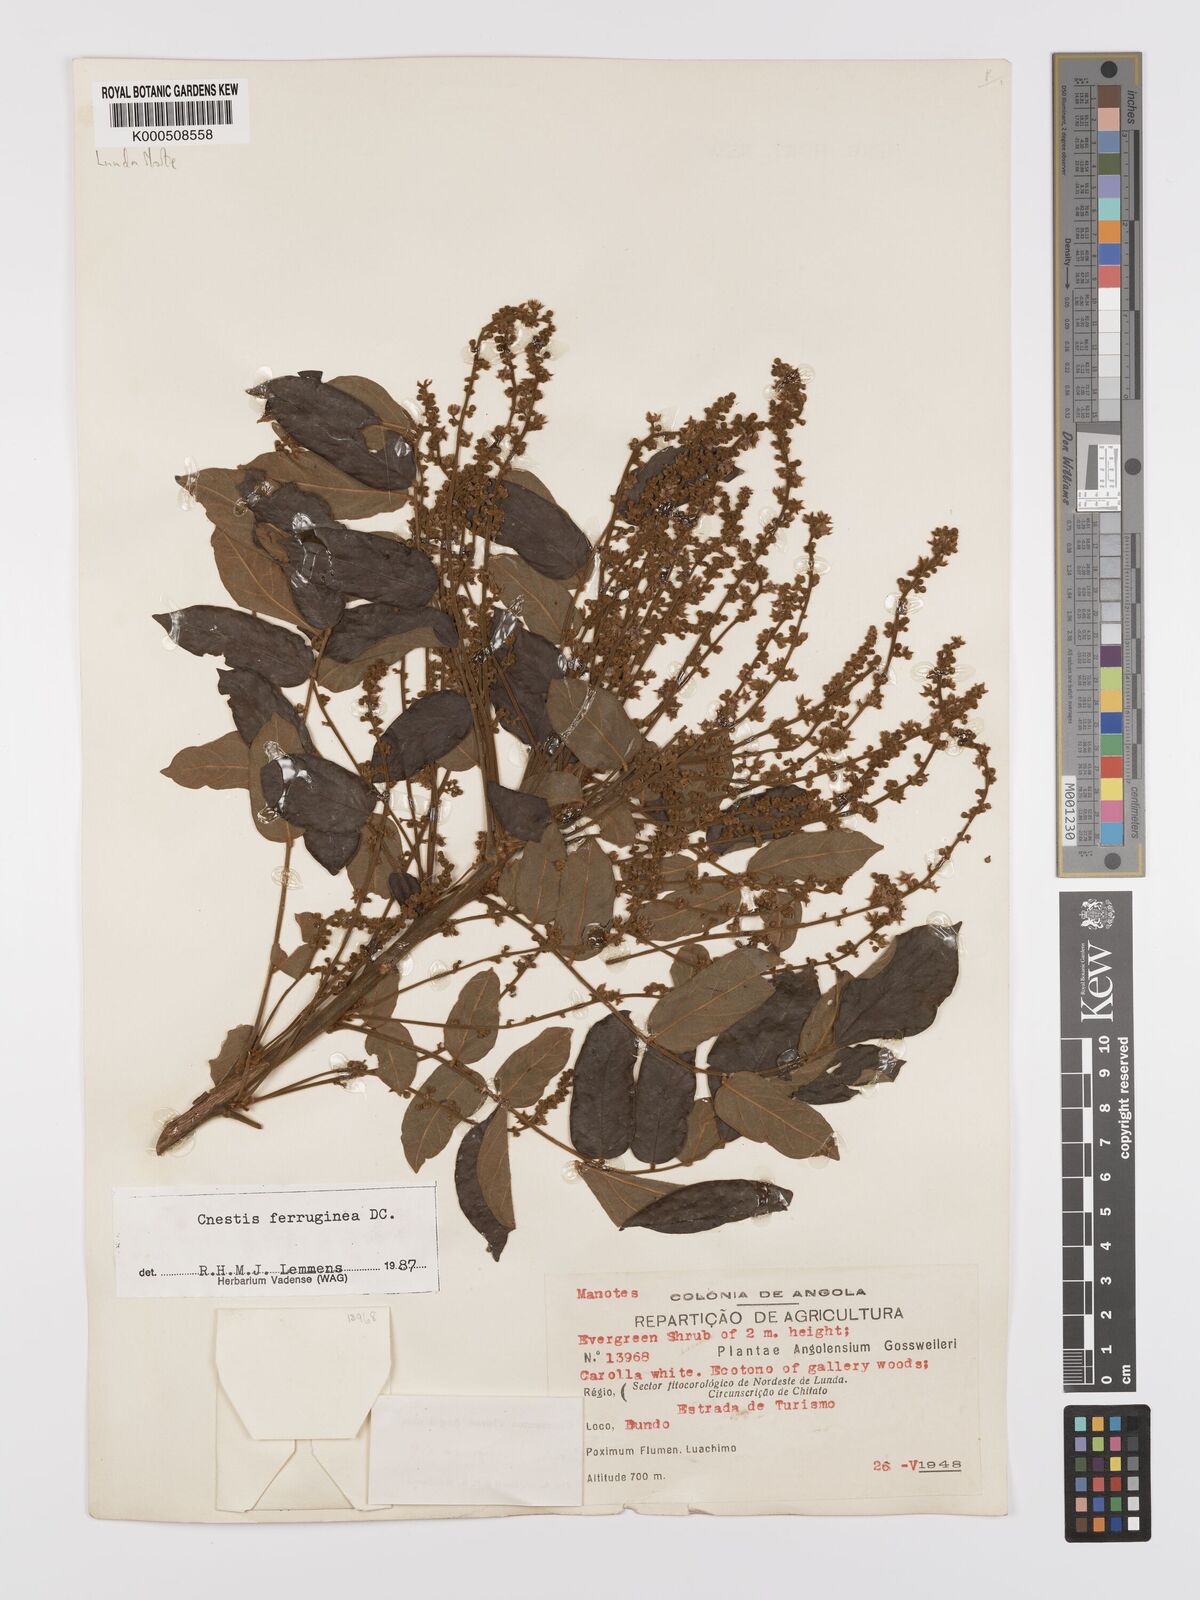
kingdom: Plantae
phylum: Tracheophyta
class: Magnoliopsida
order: Oxalidales
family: Connaraceae
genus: Cnestis
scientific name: Cnestis ferruginea
